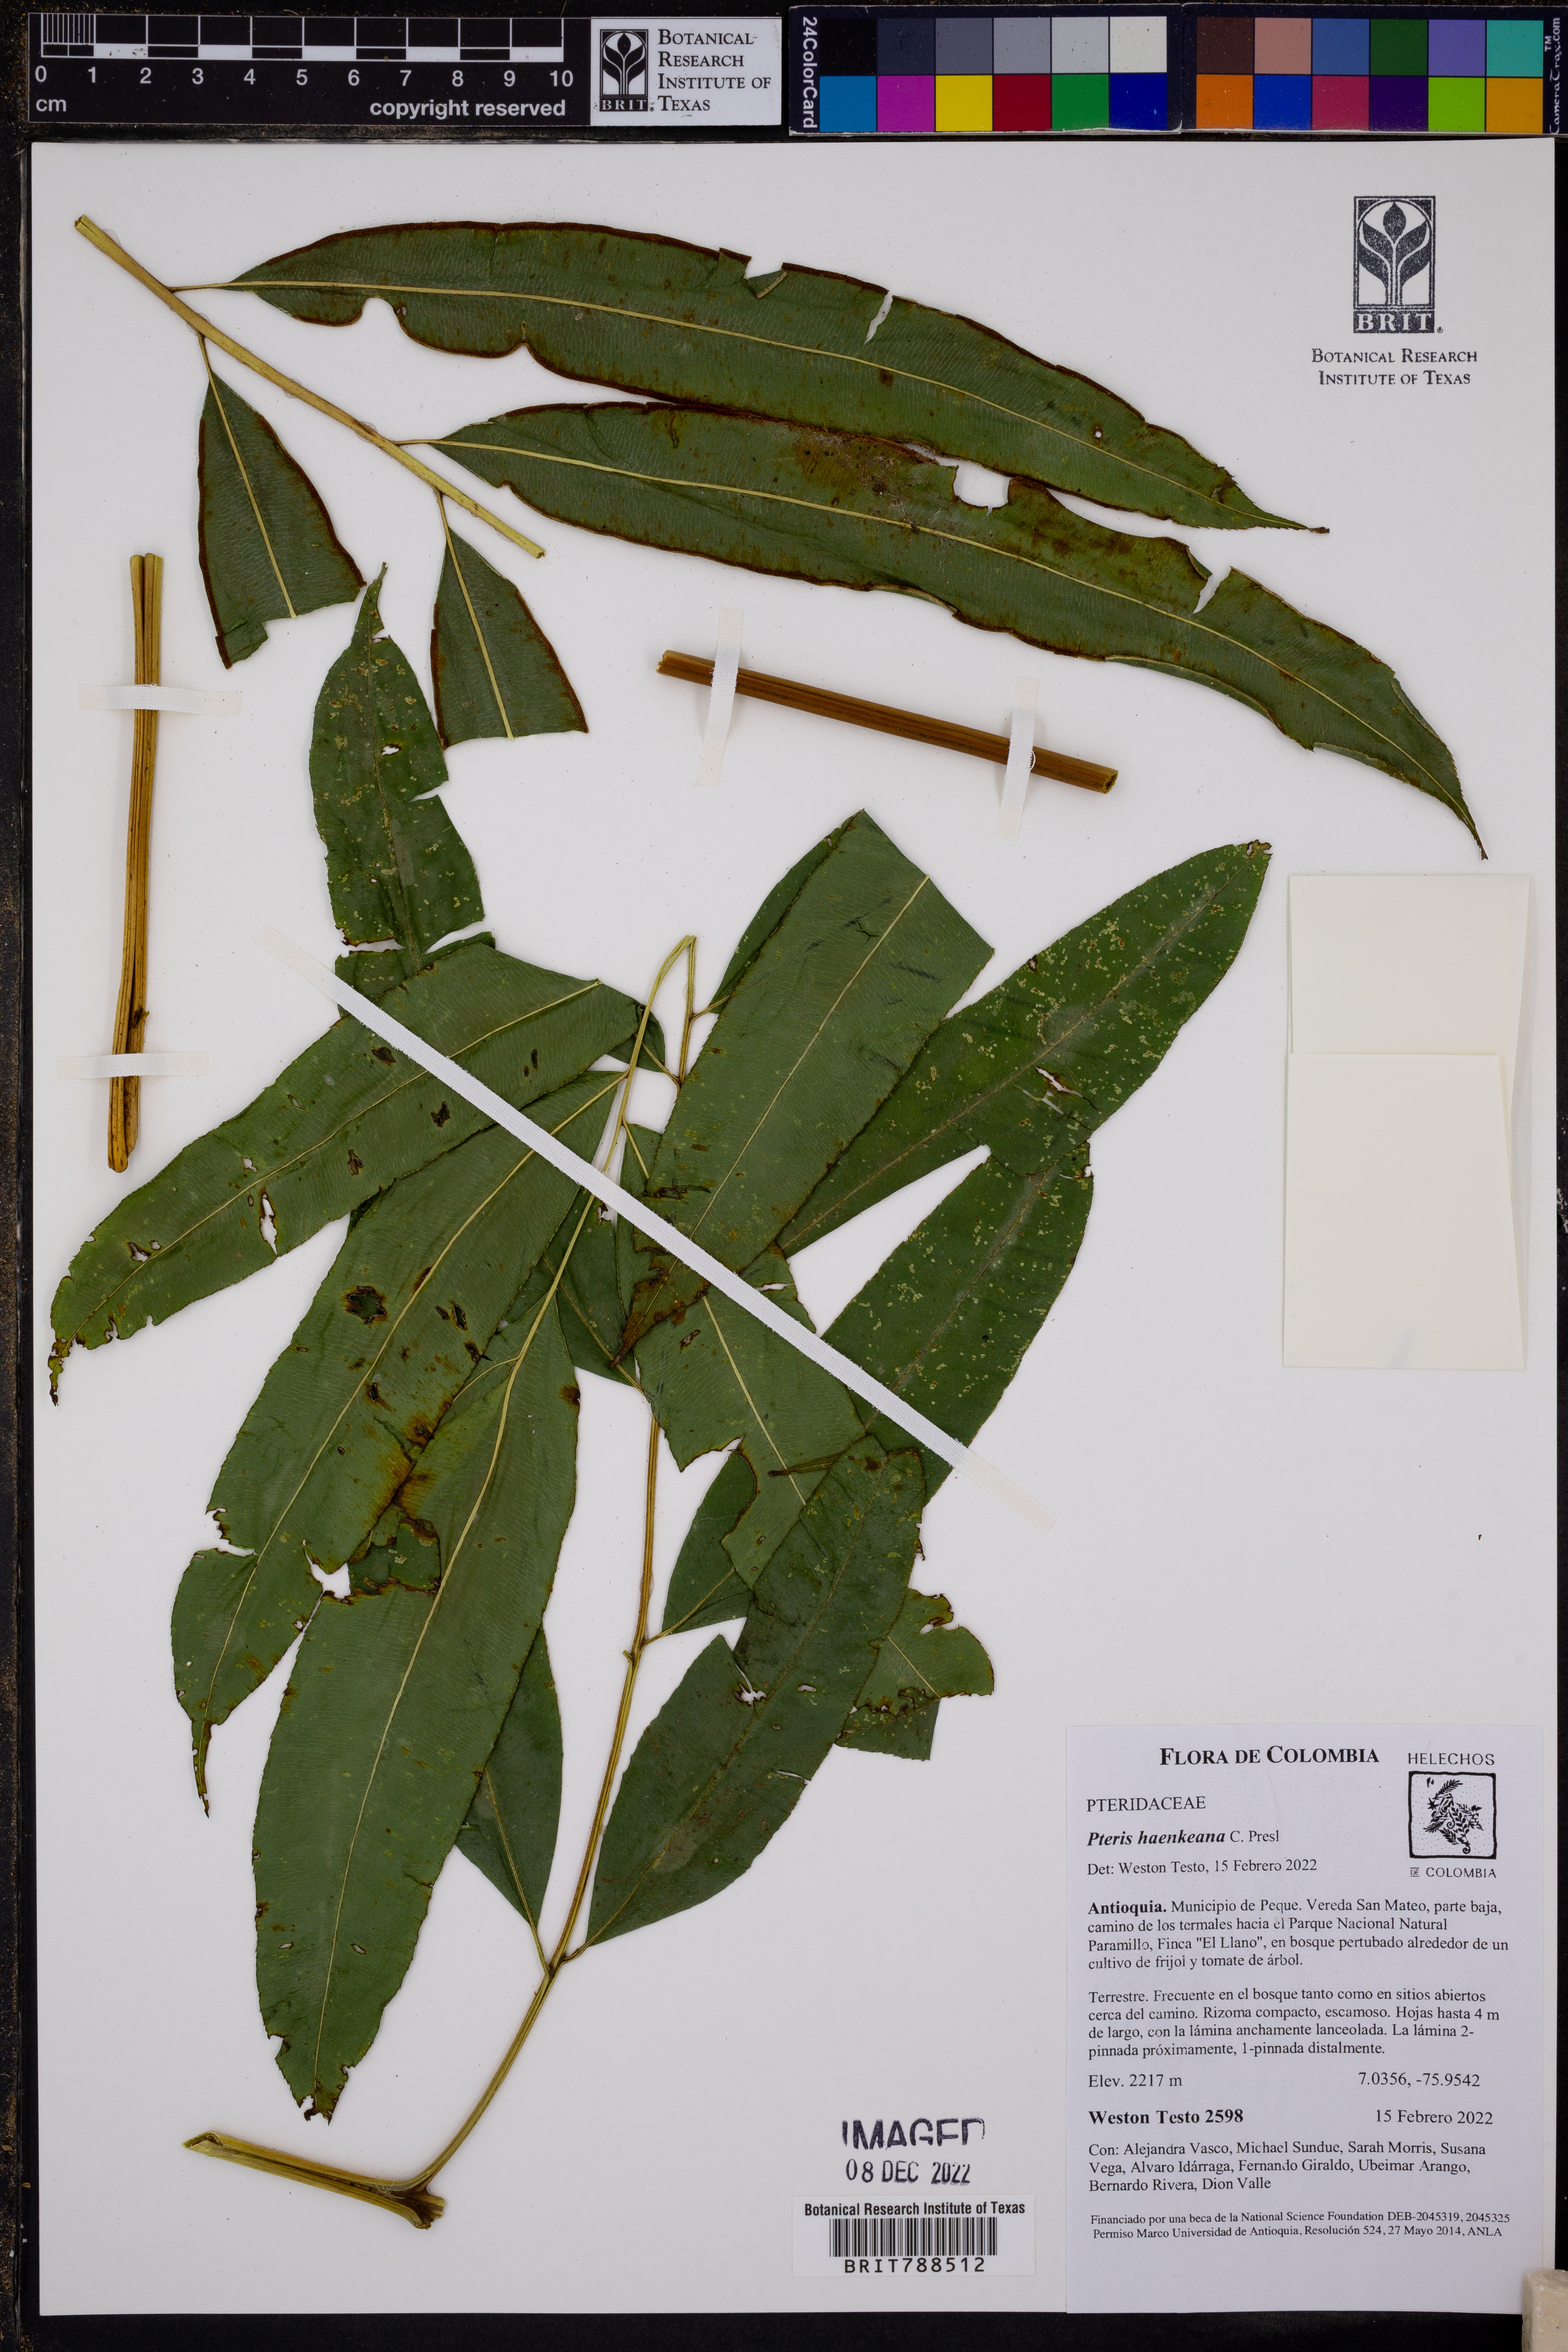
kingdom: Plantae
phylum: Tracheophyta
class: Polypodiopsida
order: Polypodiales
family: Pteridaceae
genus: Pteris
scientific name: Pteris haenkeana
